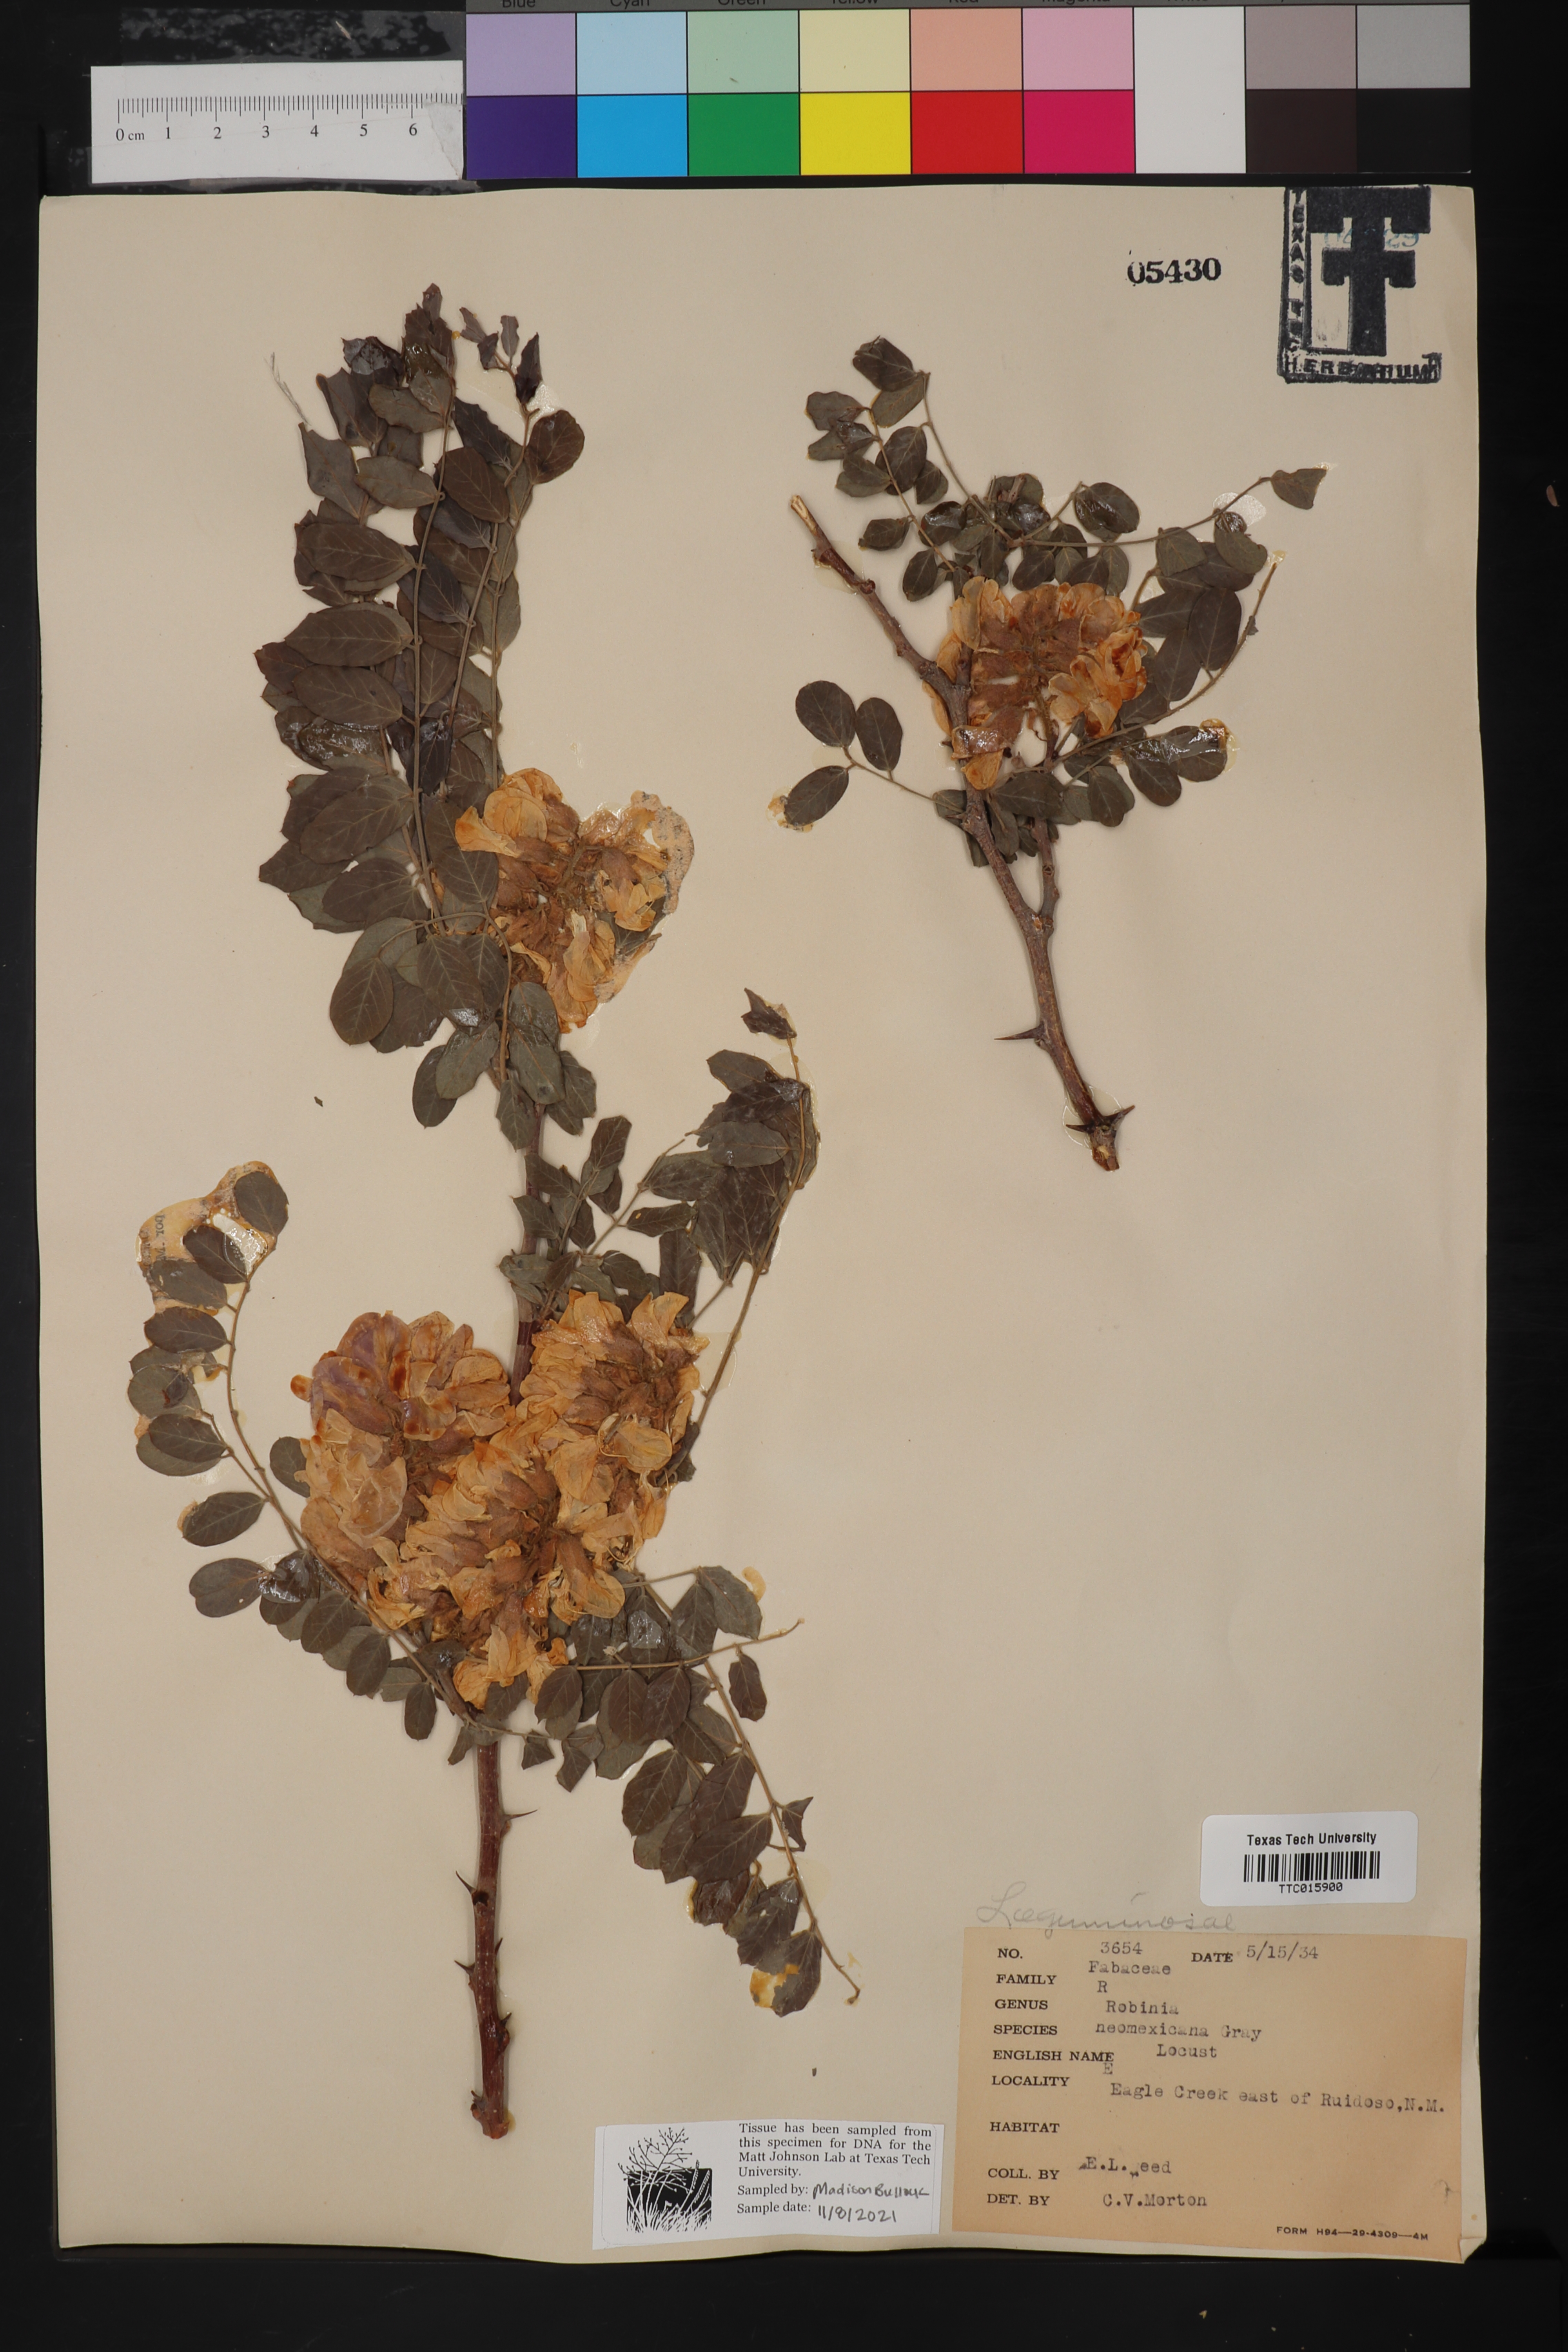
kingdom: Plantae
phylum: Tracheophyta
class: Magnoliopsida
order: Fabales
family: Fabaceae
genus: Robinia
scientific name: Robinia neomexicana
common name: New mexico locust
